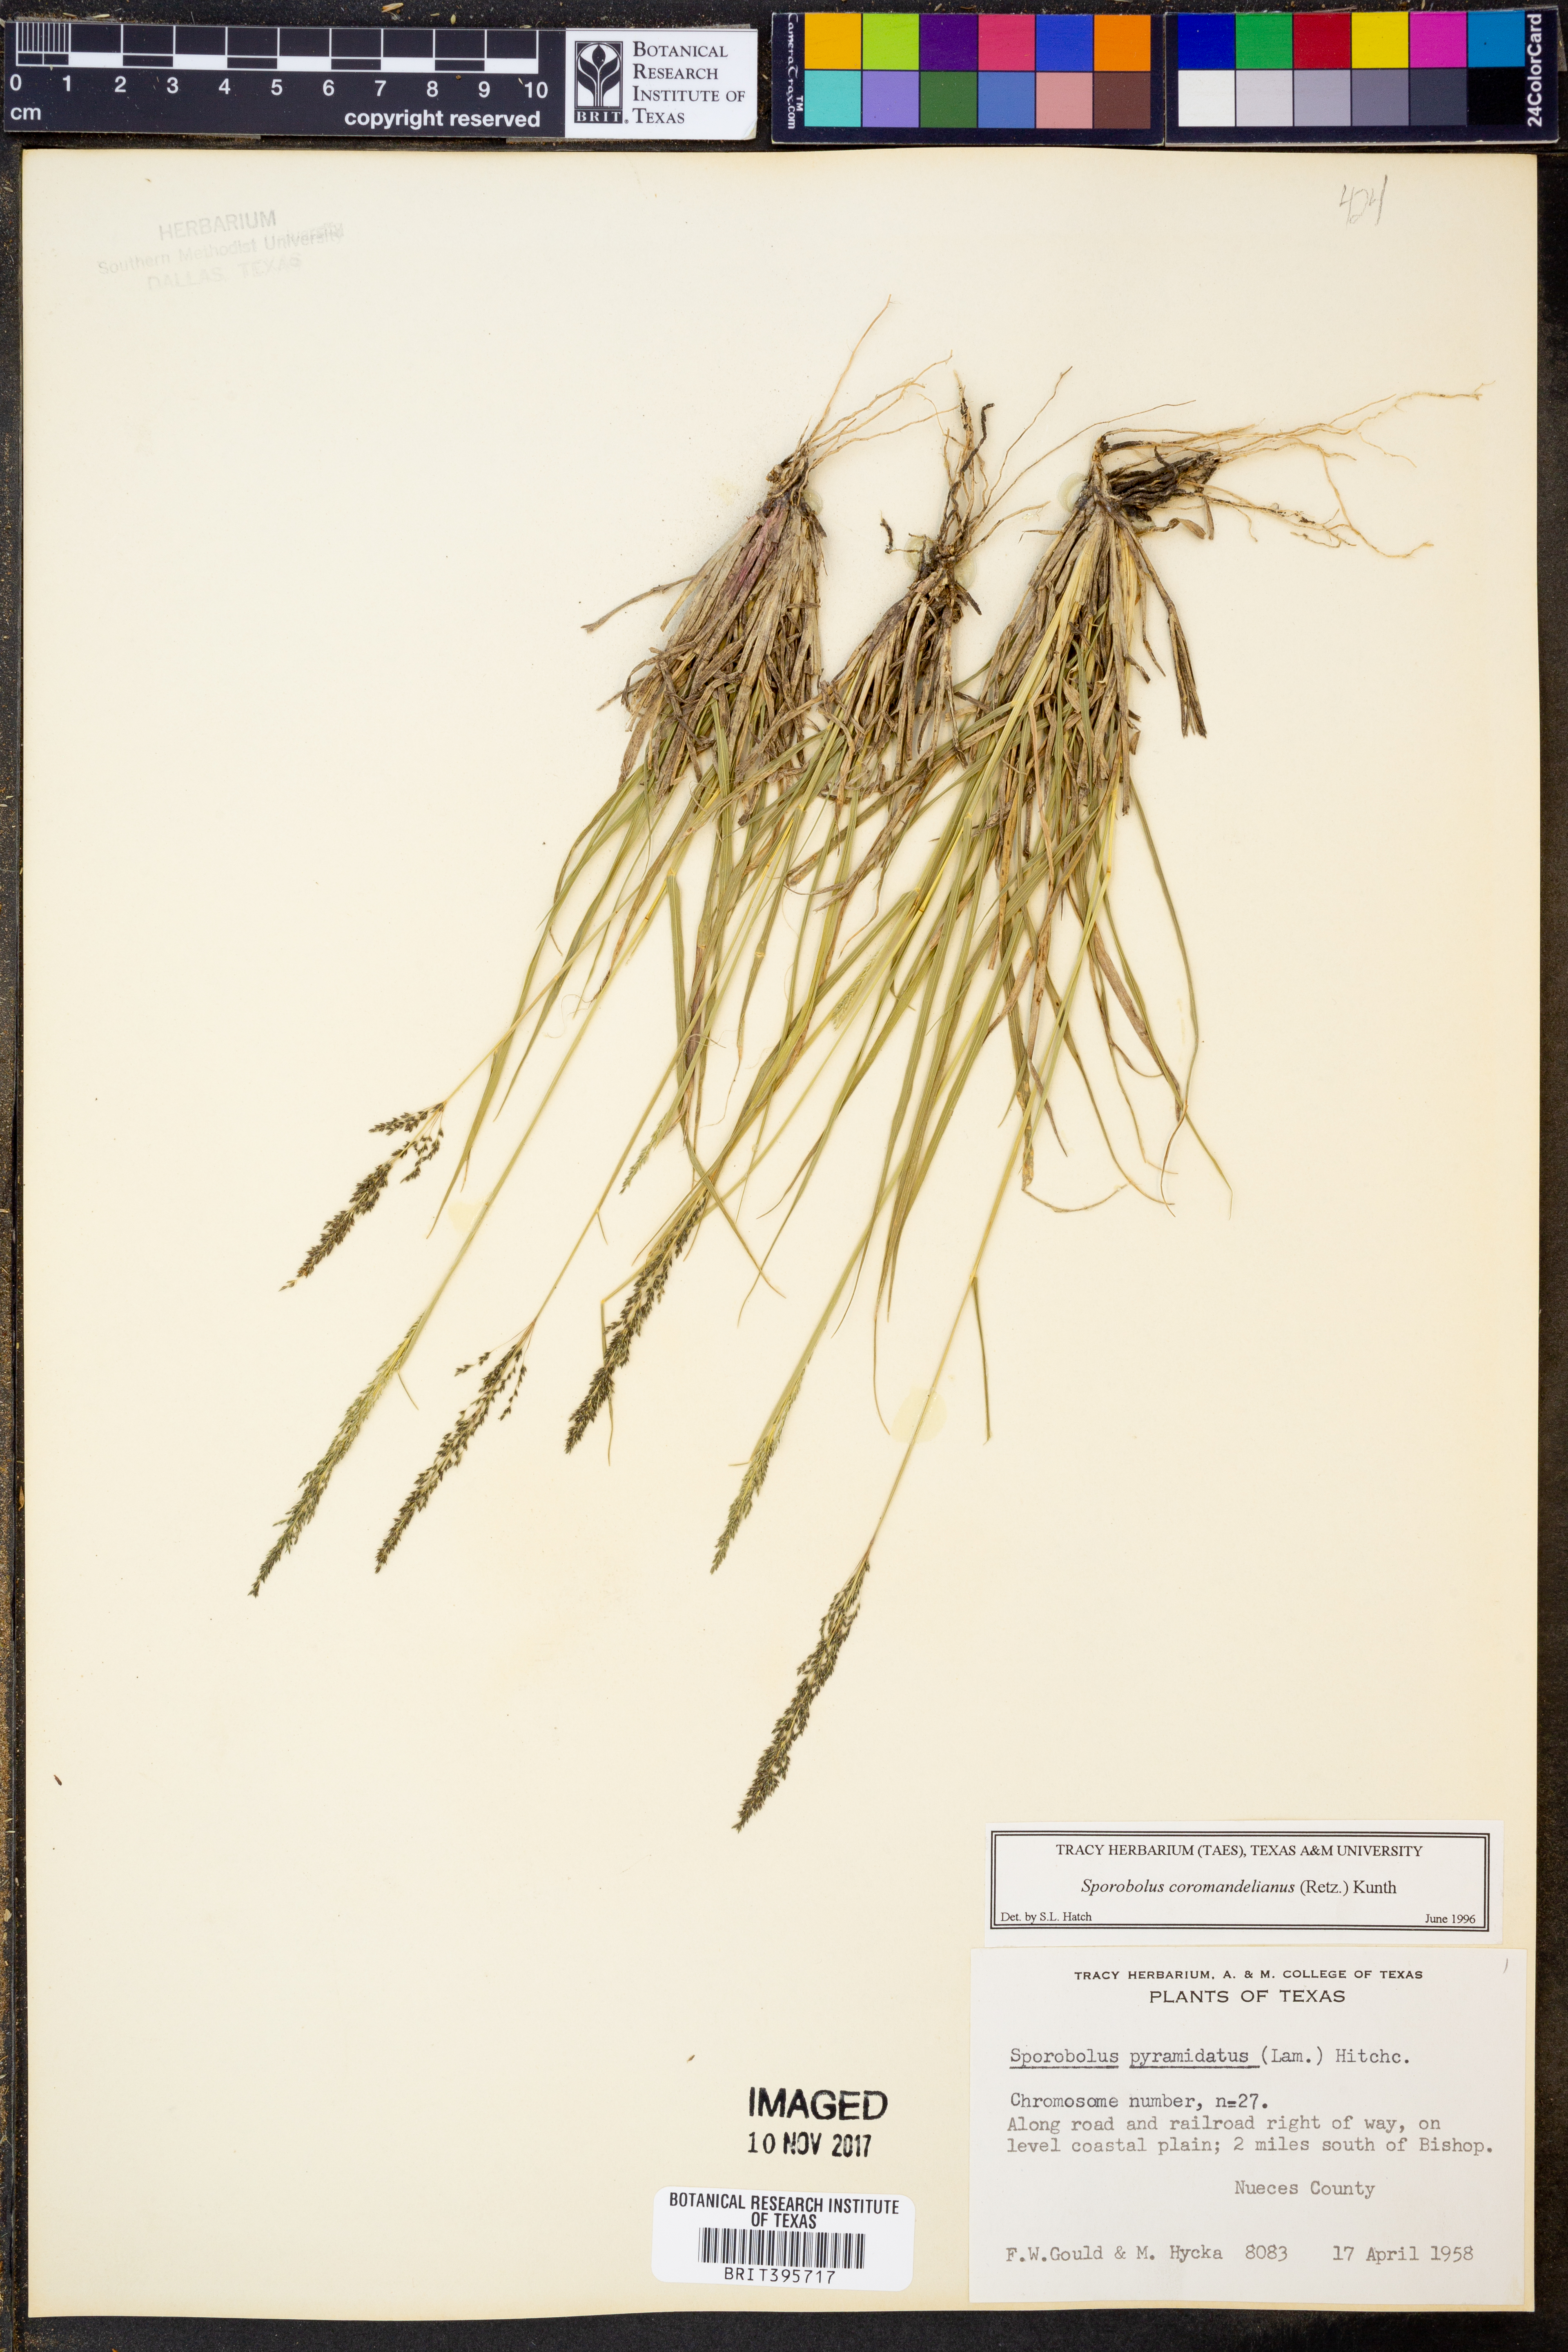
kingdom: Plantae
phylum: Tracheophyta
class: Liliopsida
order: Poales
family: Poaceae
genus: Sporobolus
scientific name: Sporobolus coromandelianus
